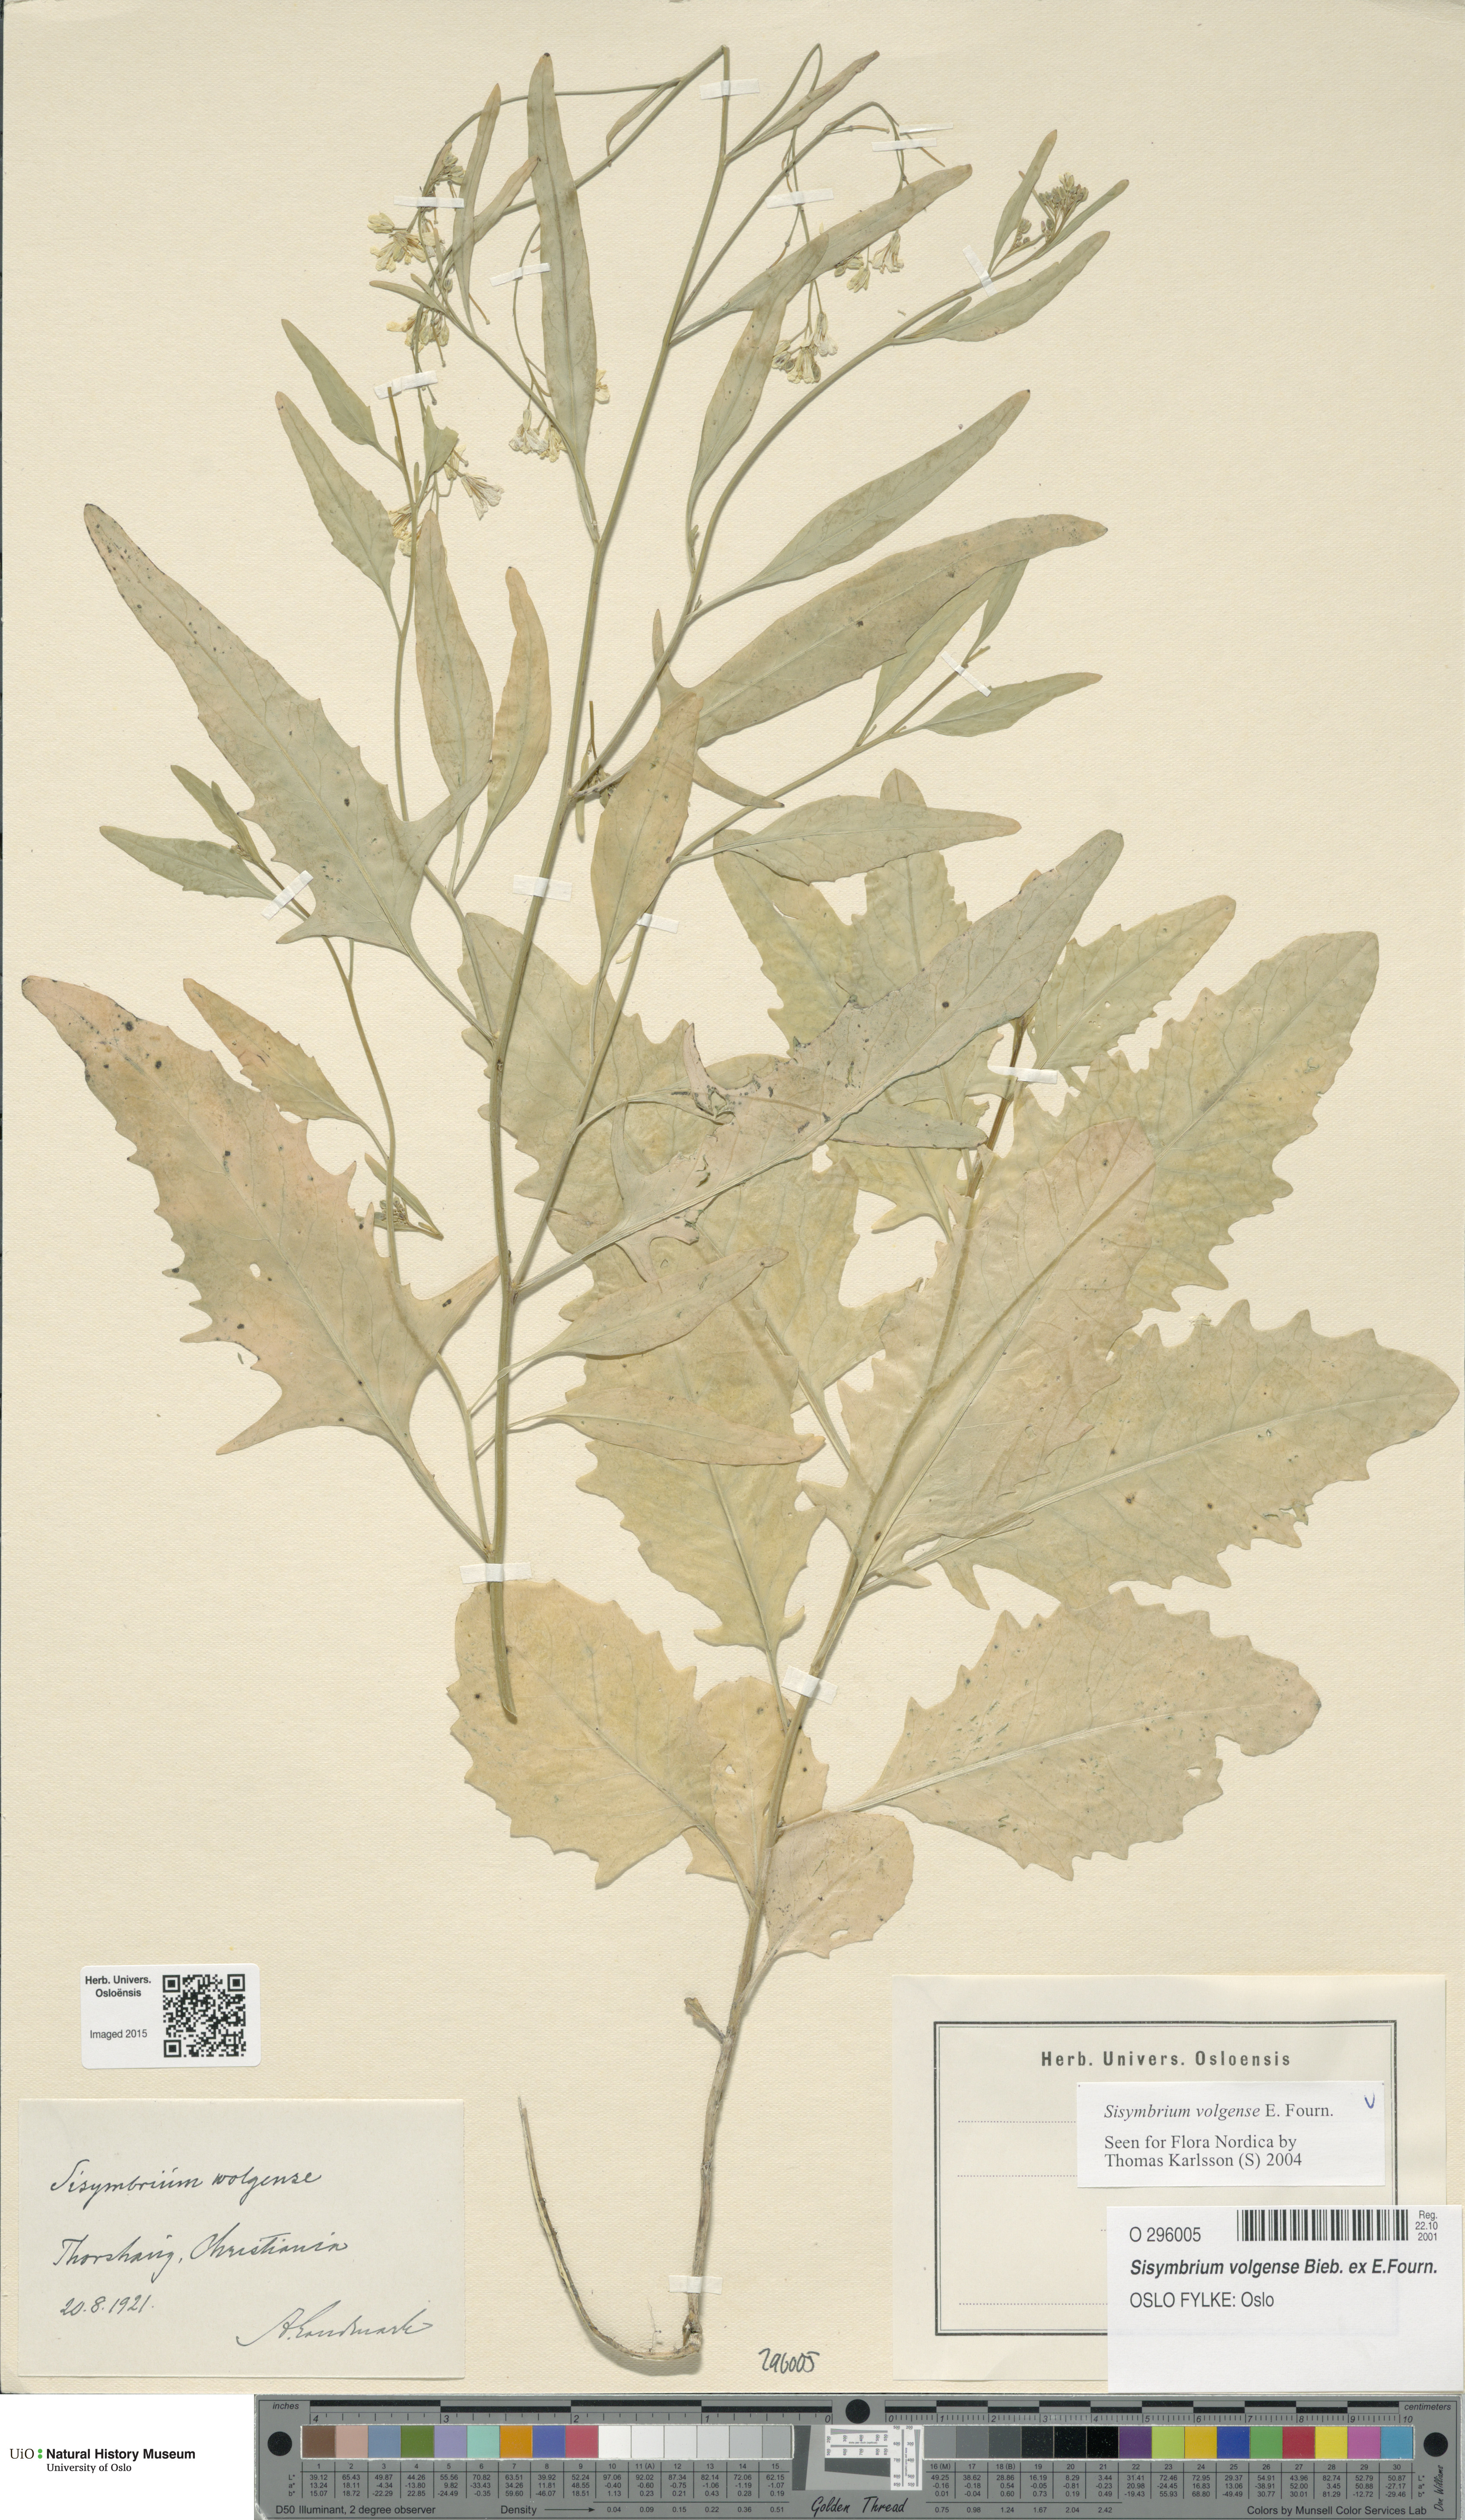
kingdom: Plantae
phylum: Tracheophyta
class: Magnoliopsida
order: Brassicales
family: Brassicaceae
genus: Sisymbrium
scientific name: Sisymbrium volgense
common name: Russian mustard
